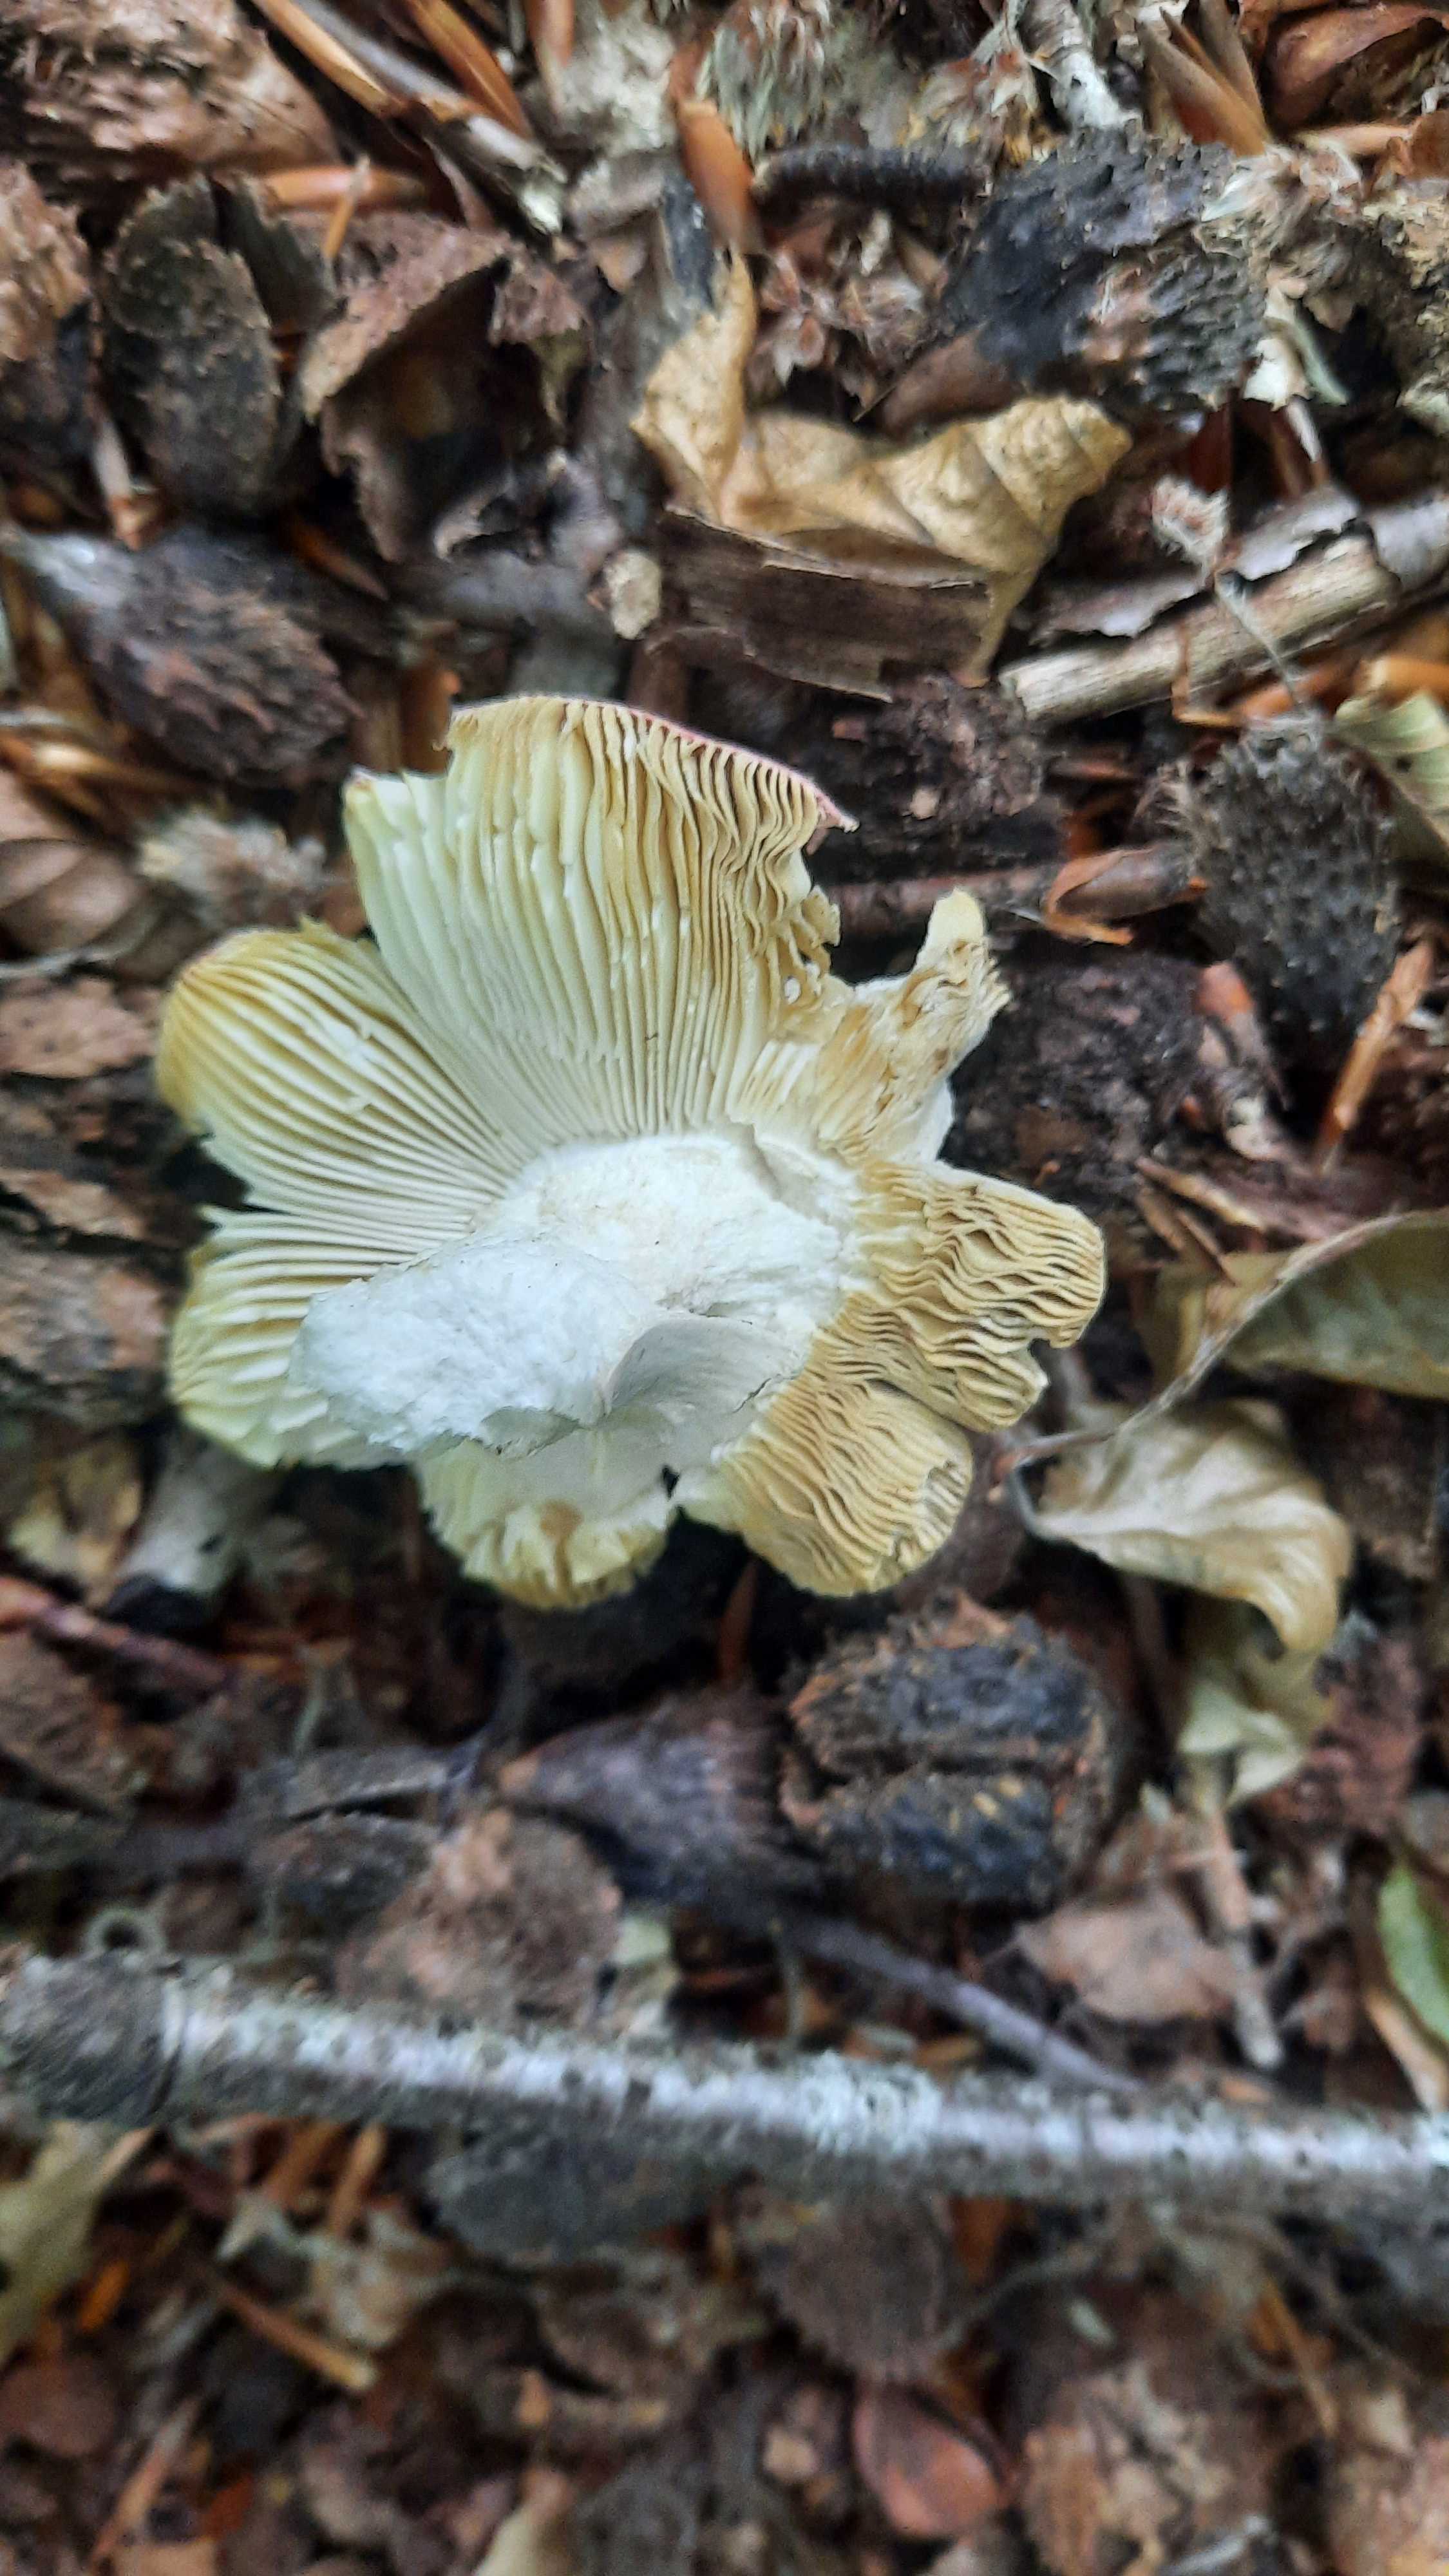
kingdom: Fungi
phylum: Basidiomycota
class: Agaricomycetes
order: Russulales
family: Russulaceae
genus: Russula
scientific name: Russula rosea
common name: fastkødet skørhat
